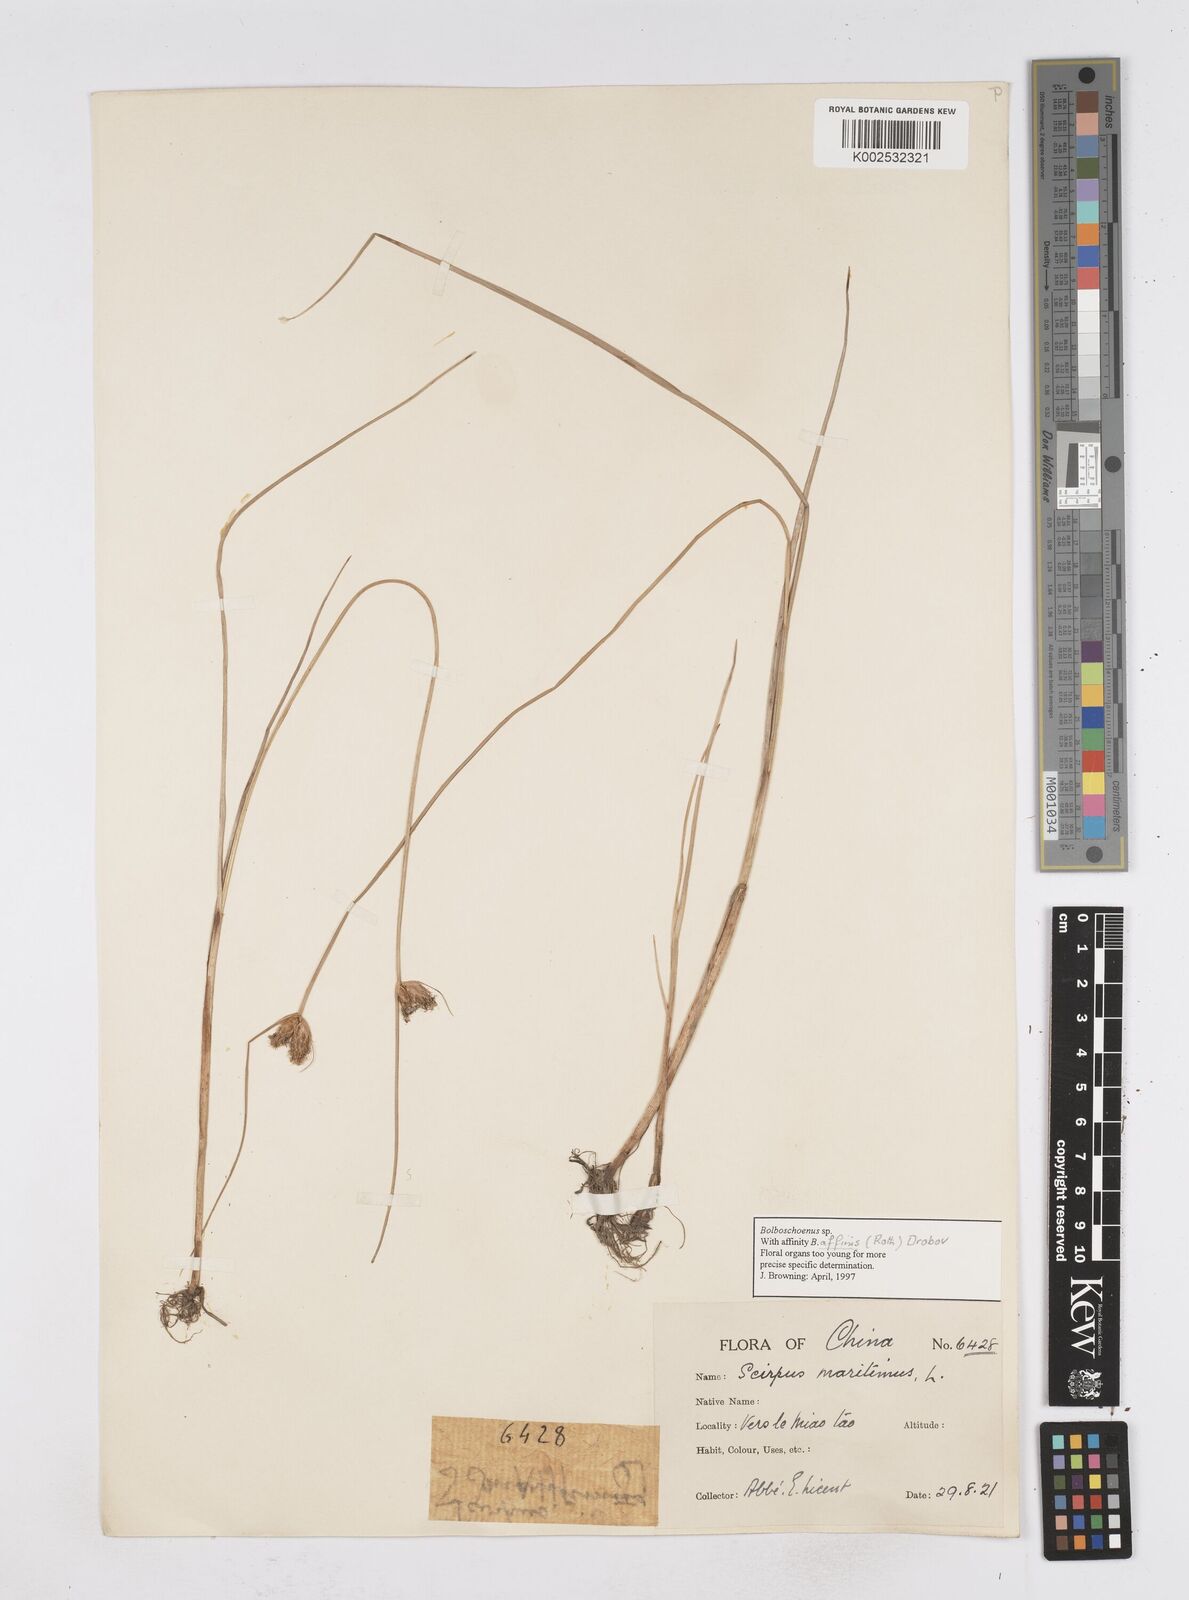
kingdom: Plantae
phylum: Tracheophyta
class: Liliopsida
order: Poales
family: Cyperaceae
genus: Bolboschoenus
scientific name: Bolboschoenus maritimus
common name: Sea club-rush
